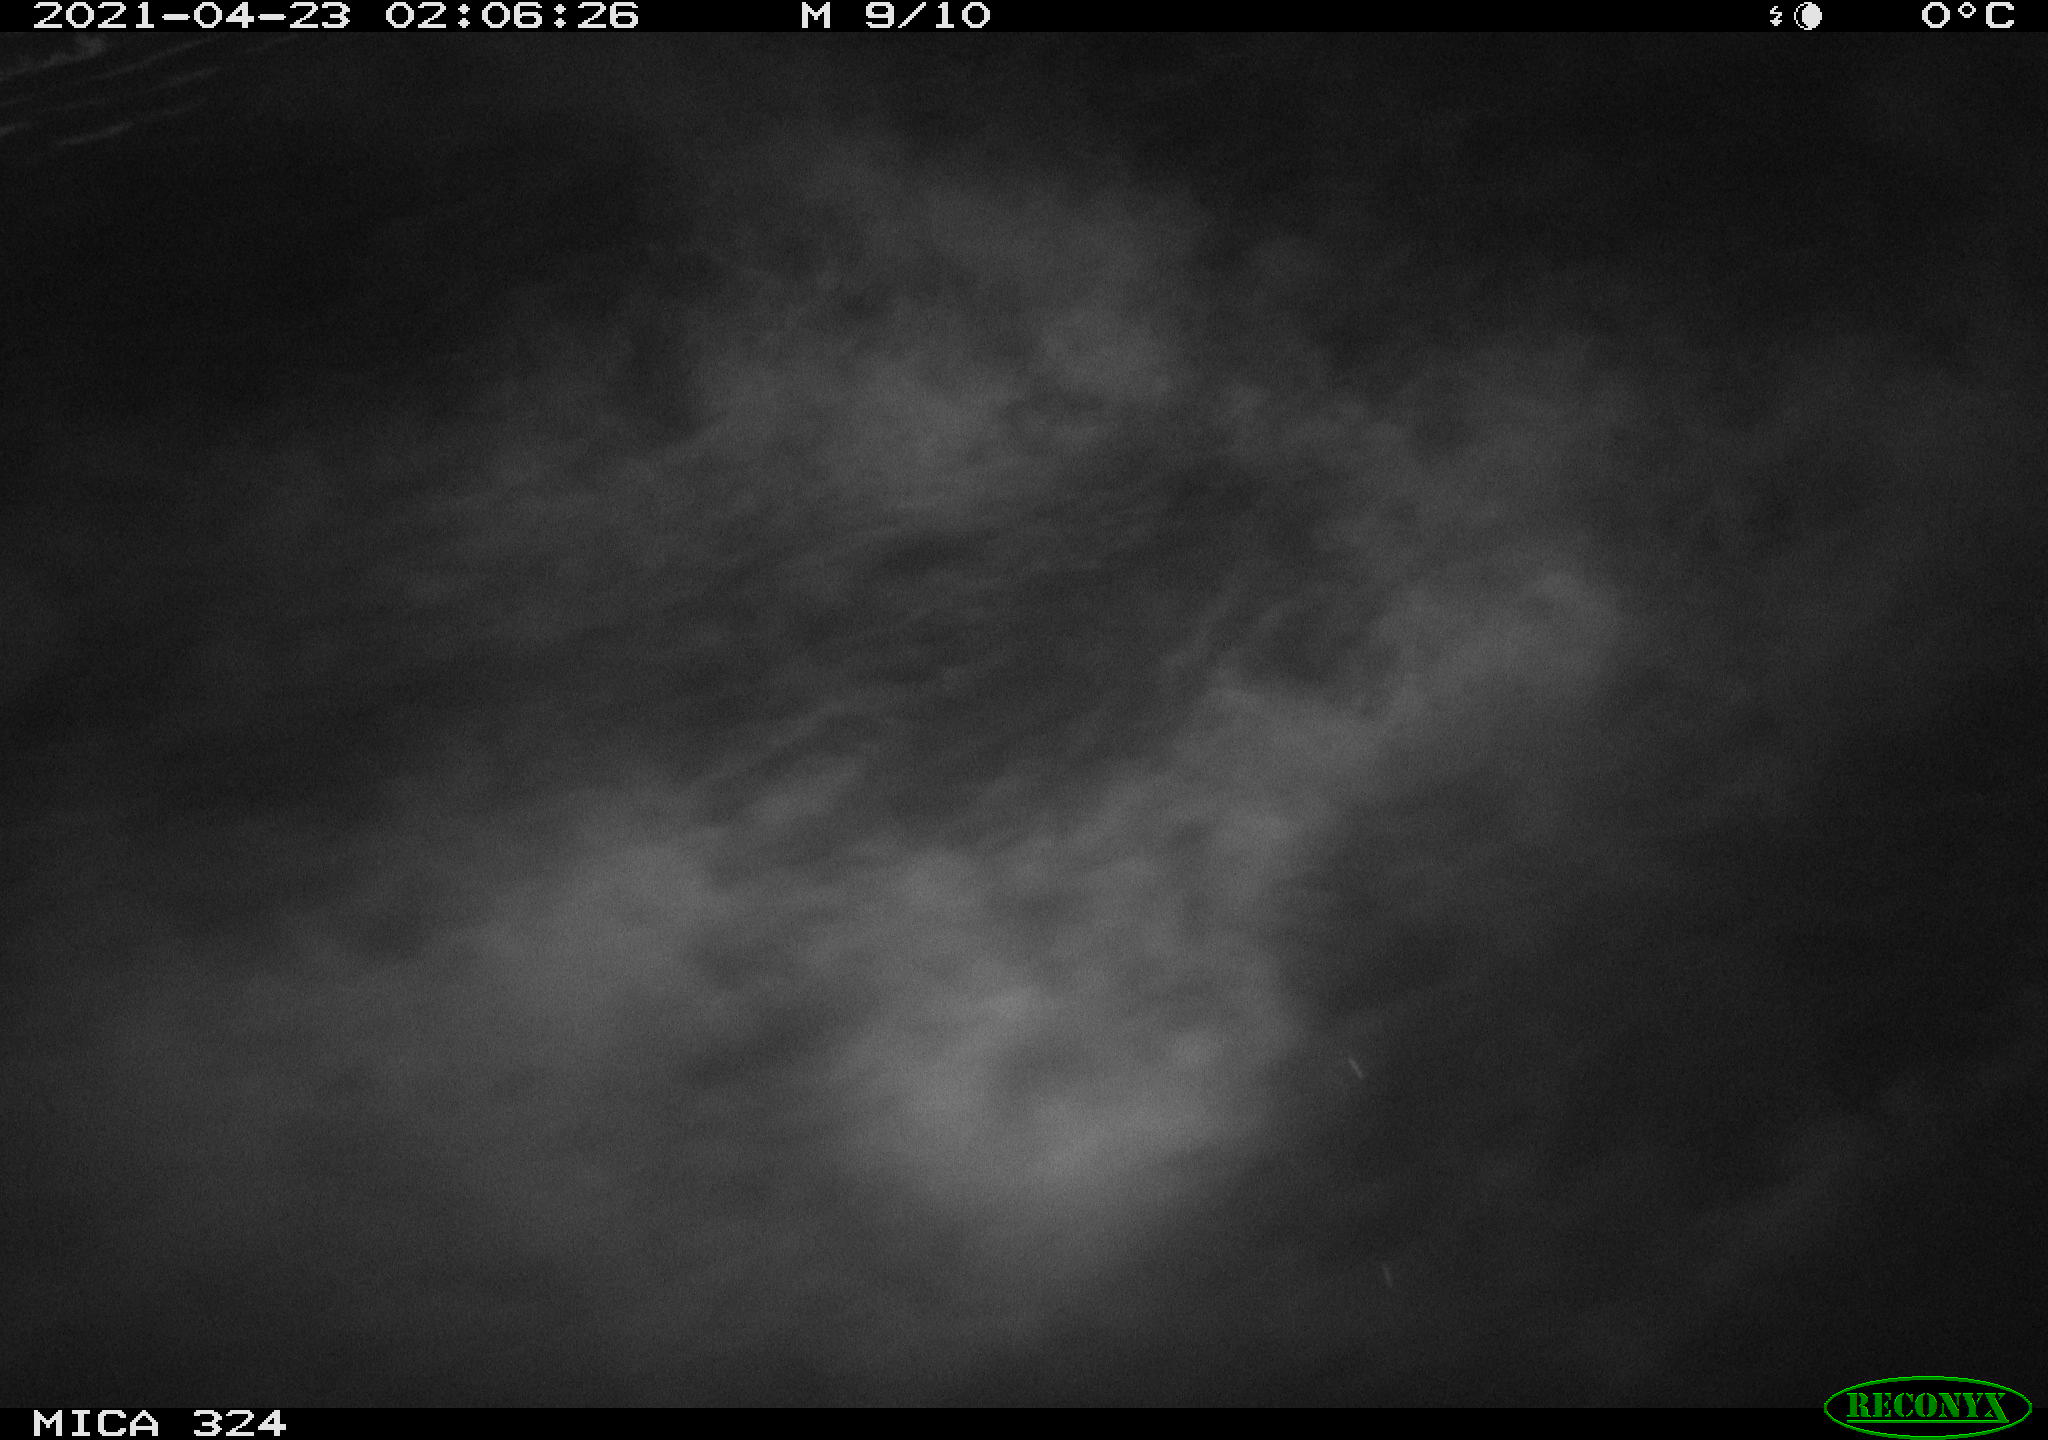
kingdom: Animalia
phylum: Chordata
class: Aves
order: Anseriformes
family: Anatidae
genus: Anas
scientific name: Anas platyrhynchos
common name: Mallard
